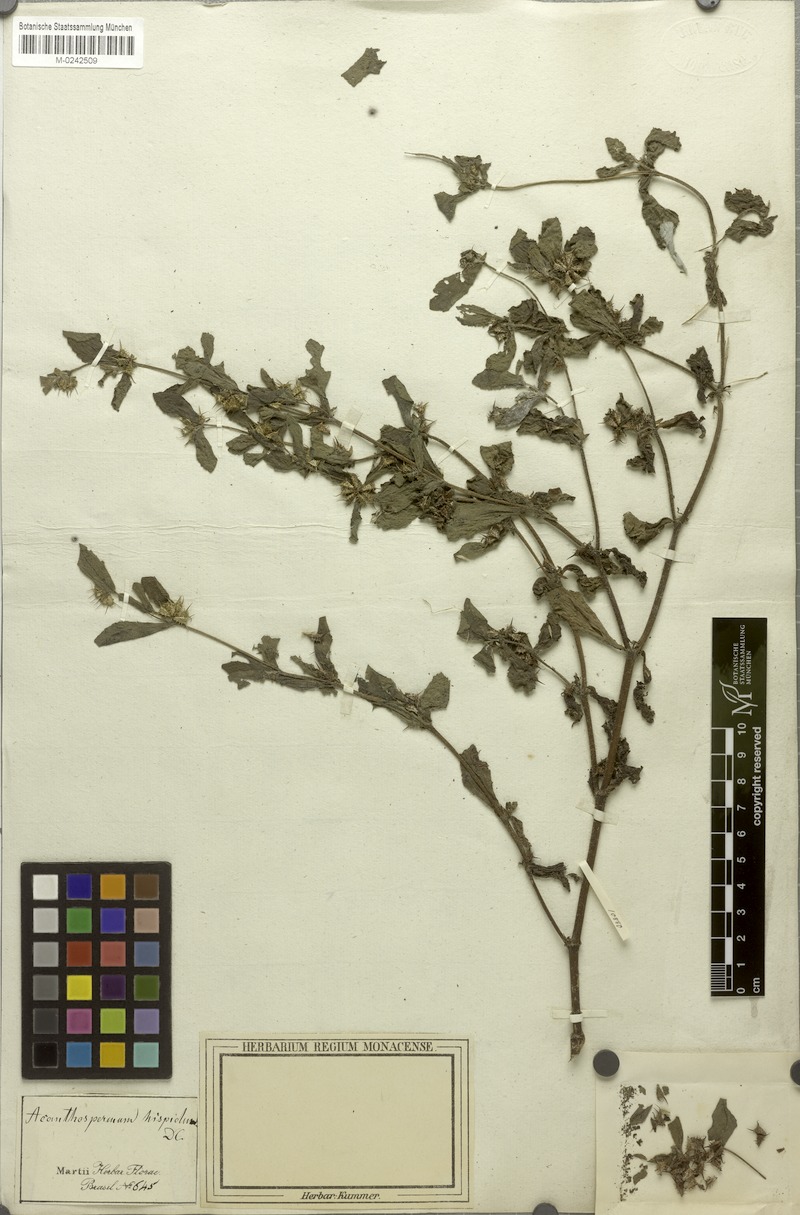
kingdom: Plantae
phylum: Tracheophyta
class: Magnoliopsida
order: Asterales
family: Asteraceae
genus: Acanthospermum
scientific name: Acanthospermum australe
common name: Paraguayan starbur
